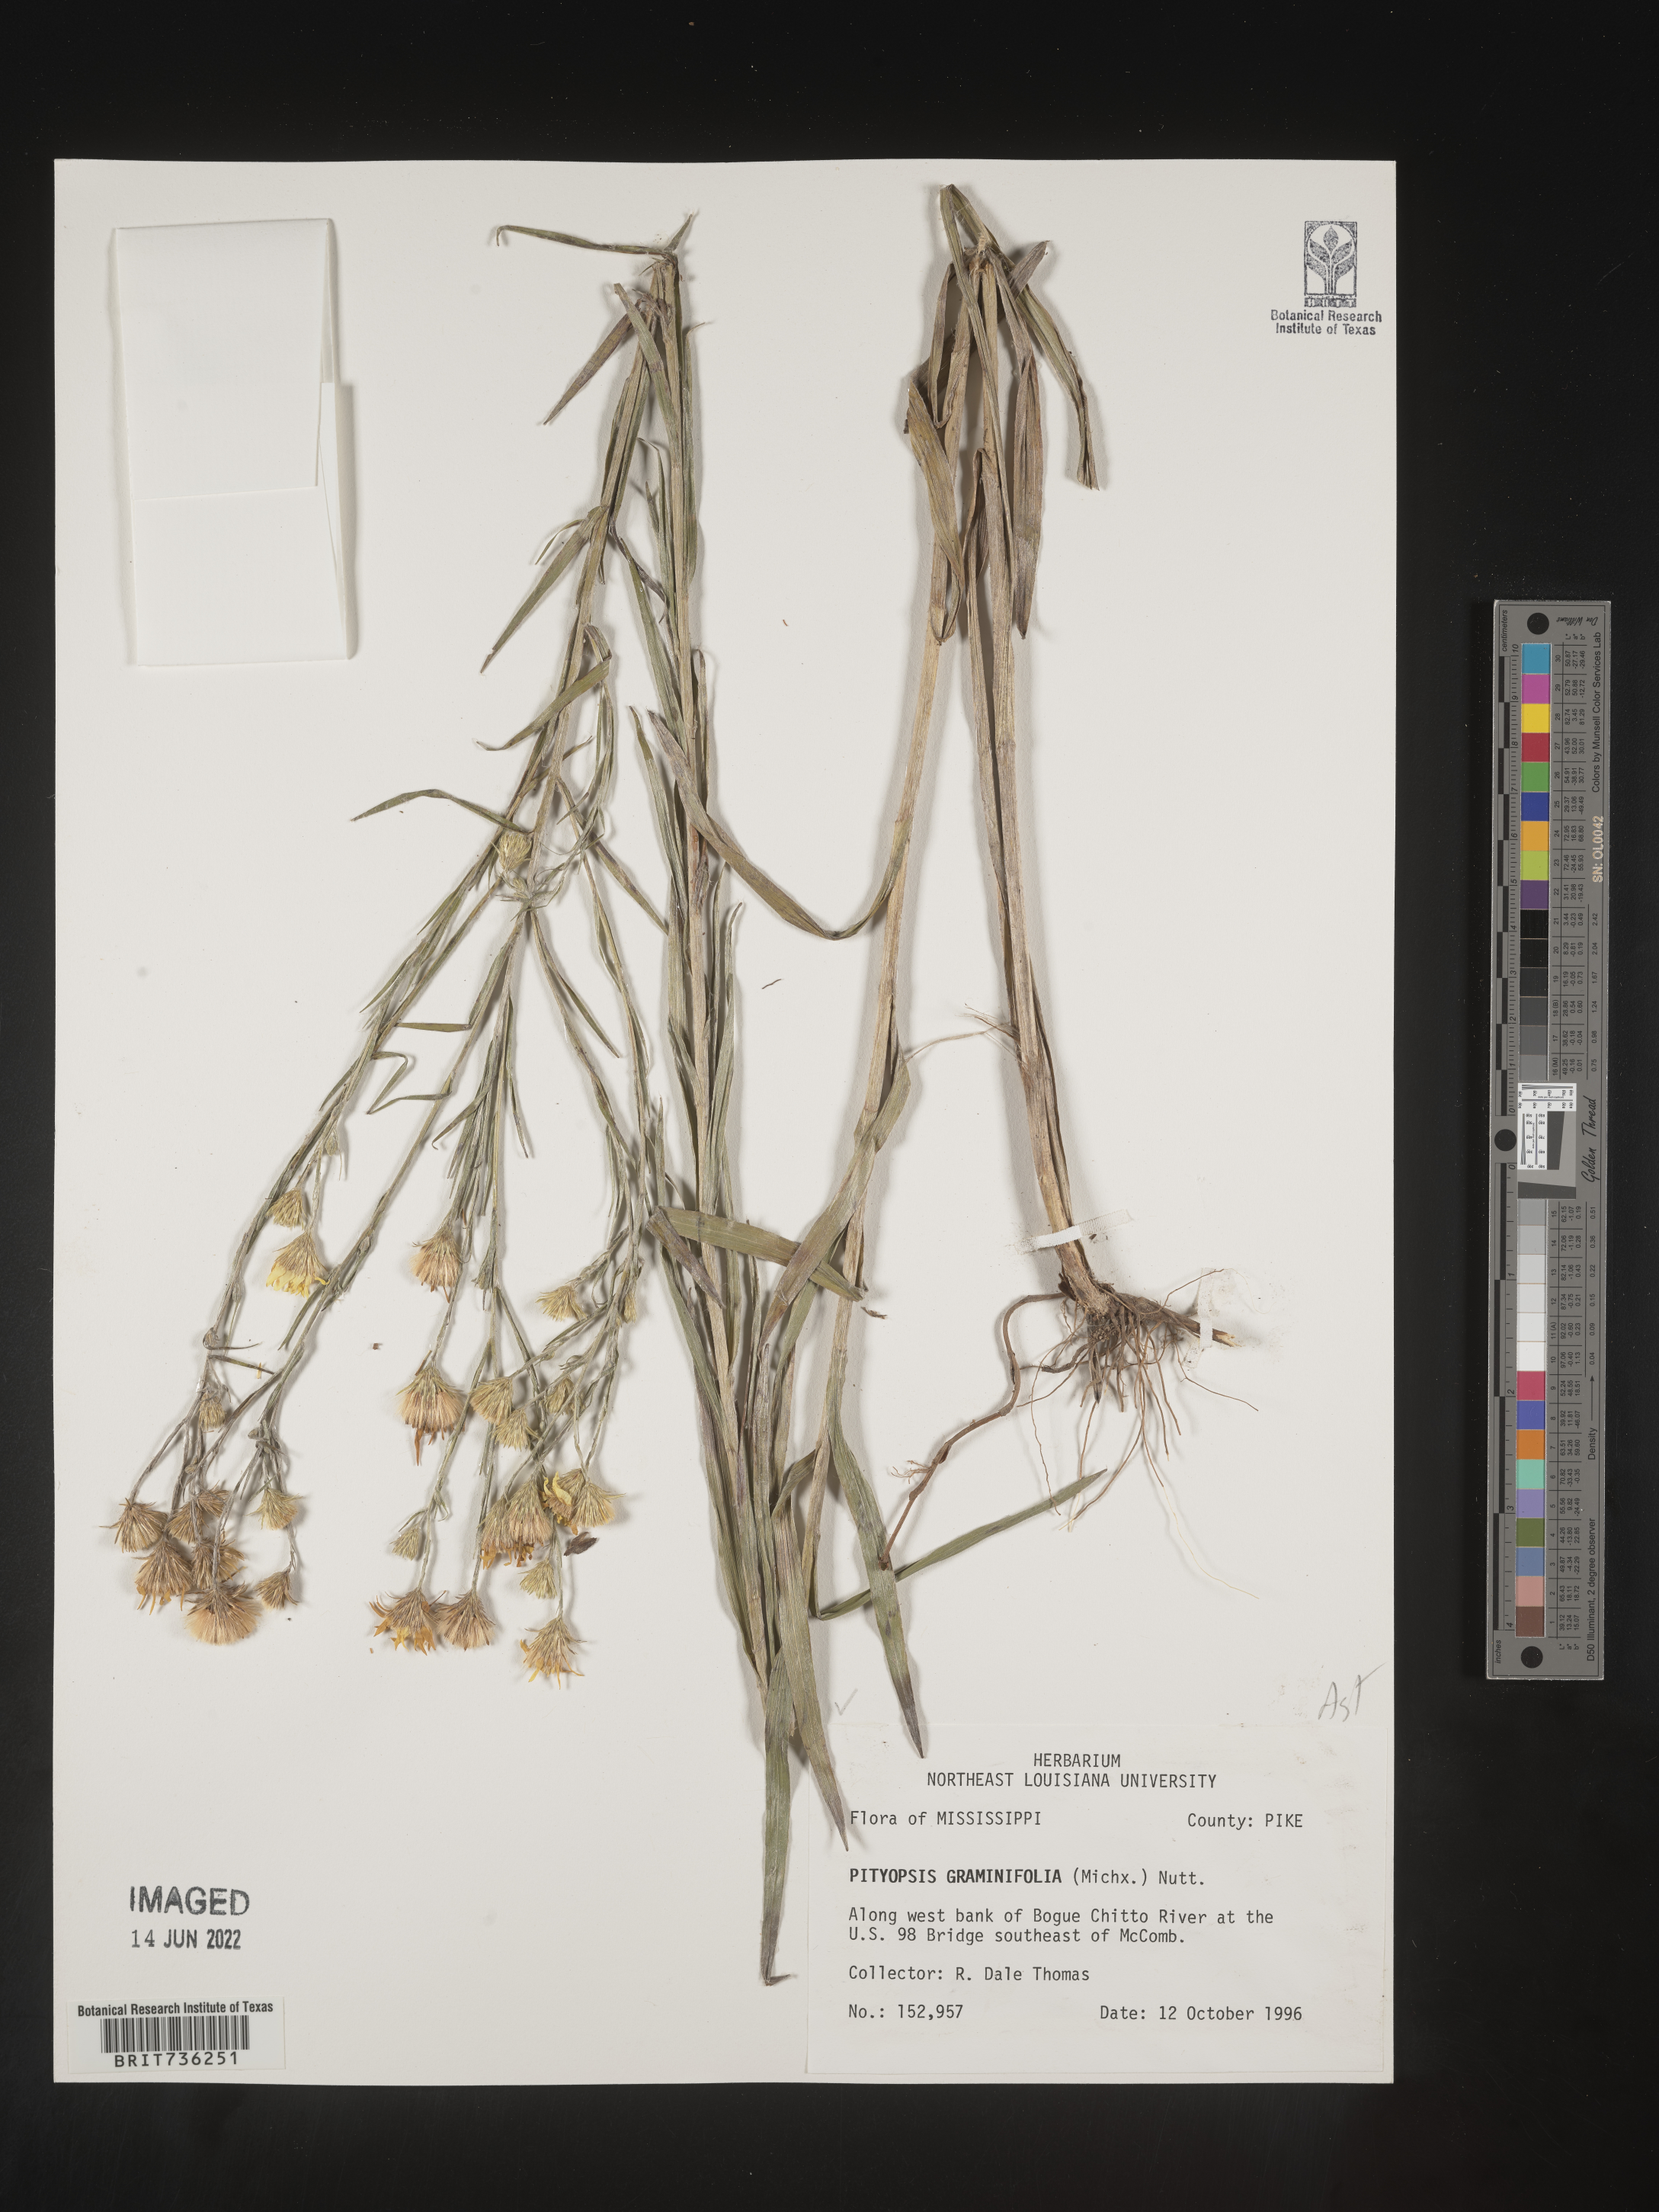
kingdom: Plantae
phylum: Tracheophyta
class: Magnoliopsida
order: Asterales
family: Asteraceae
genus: Pityopsis
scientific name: Pityopsis graminifolia
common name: Grass-leaf golden-aster
